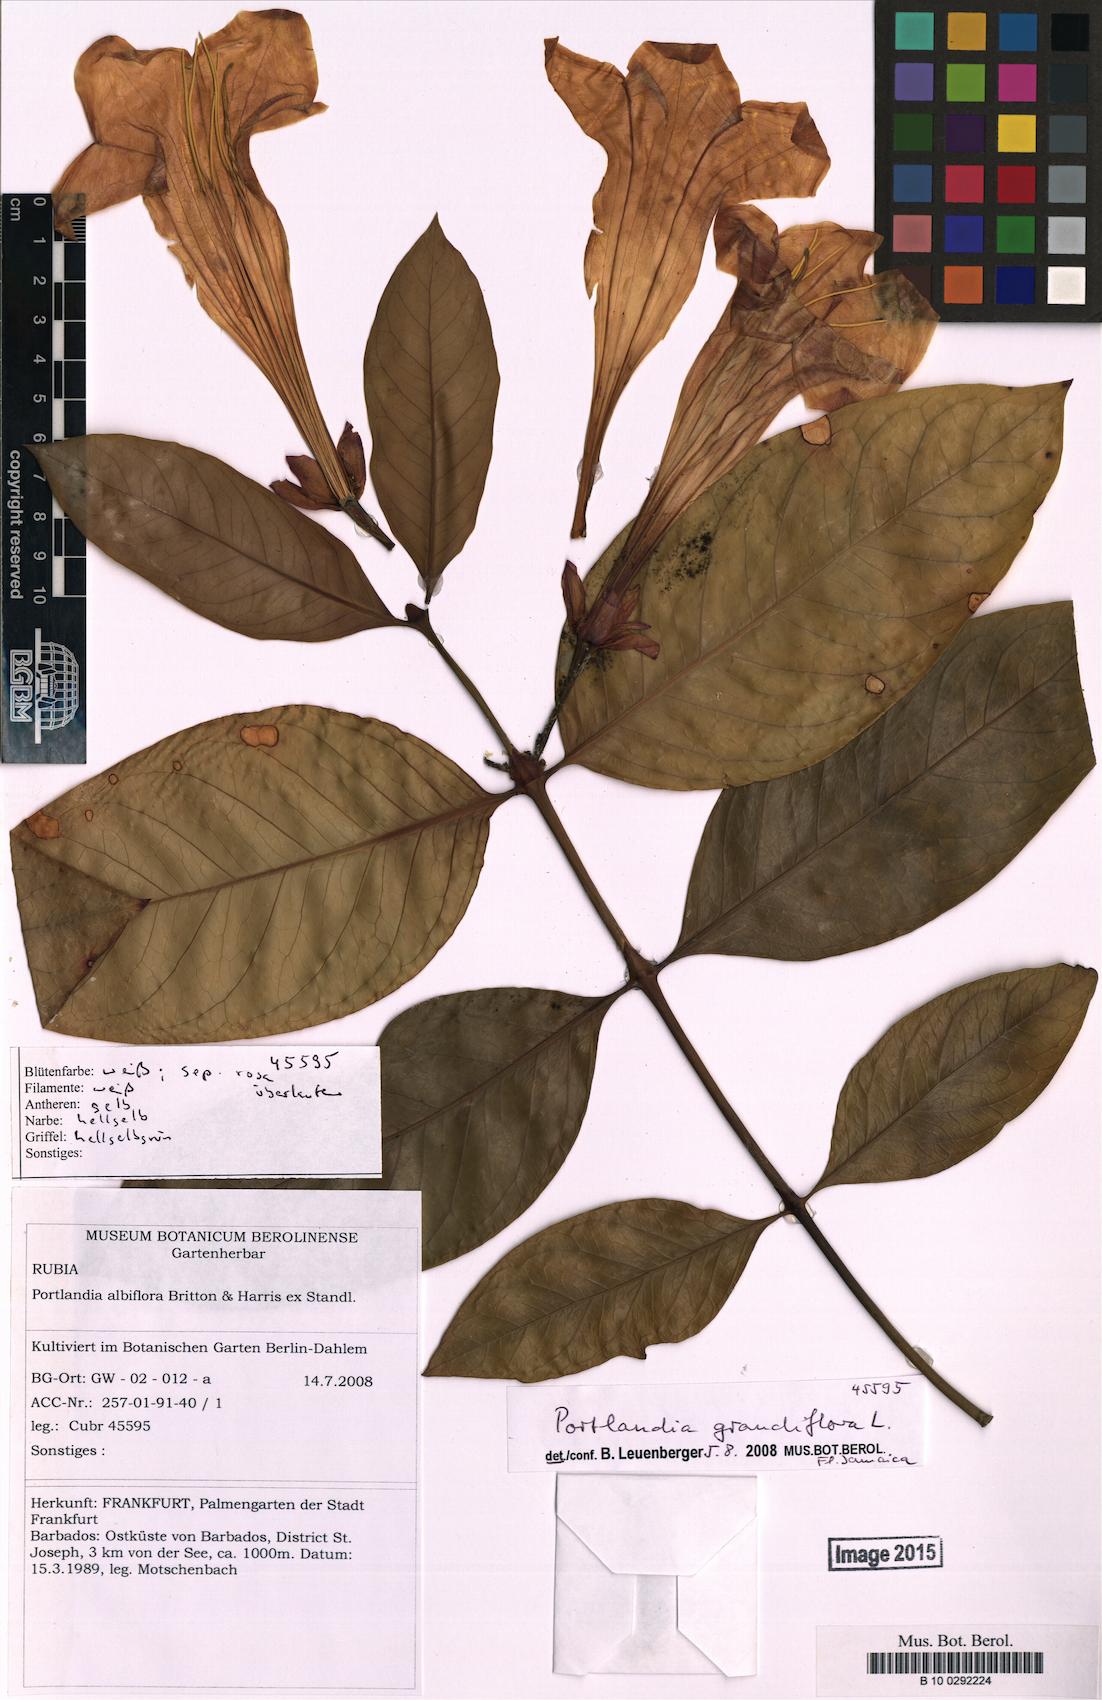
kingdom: Plantae
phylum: Tracheophyta
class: Magnoliopsida
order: Gentianales
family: Rubiaceae
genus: Portlandia
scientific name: Portlandia grandiflora
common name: Bellflower
